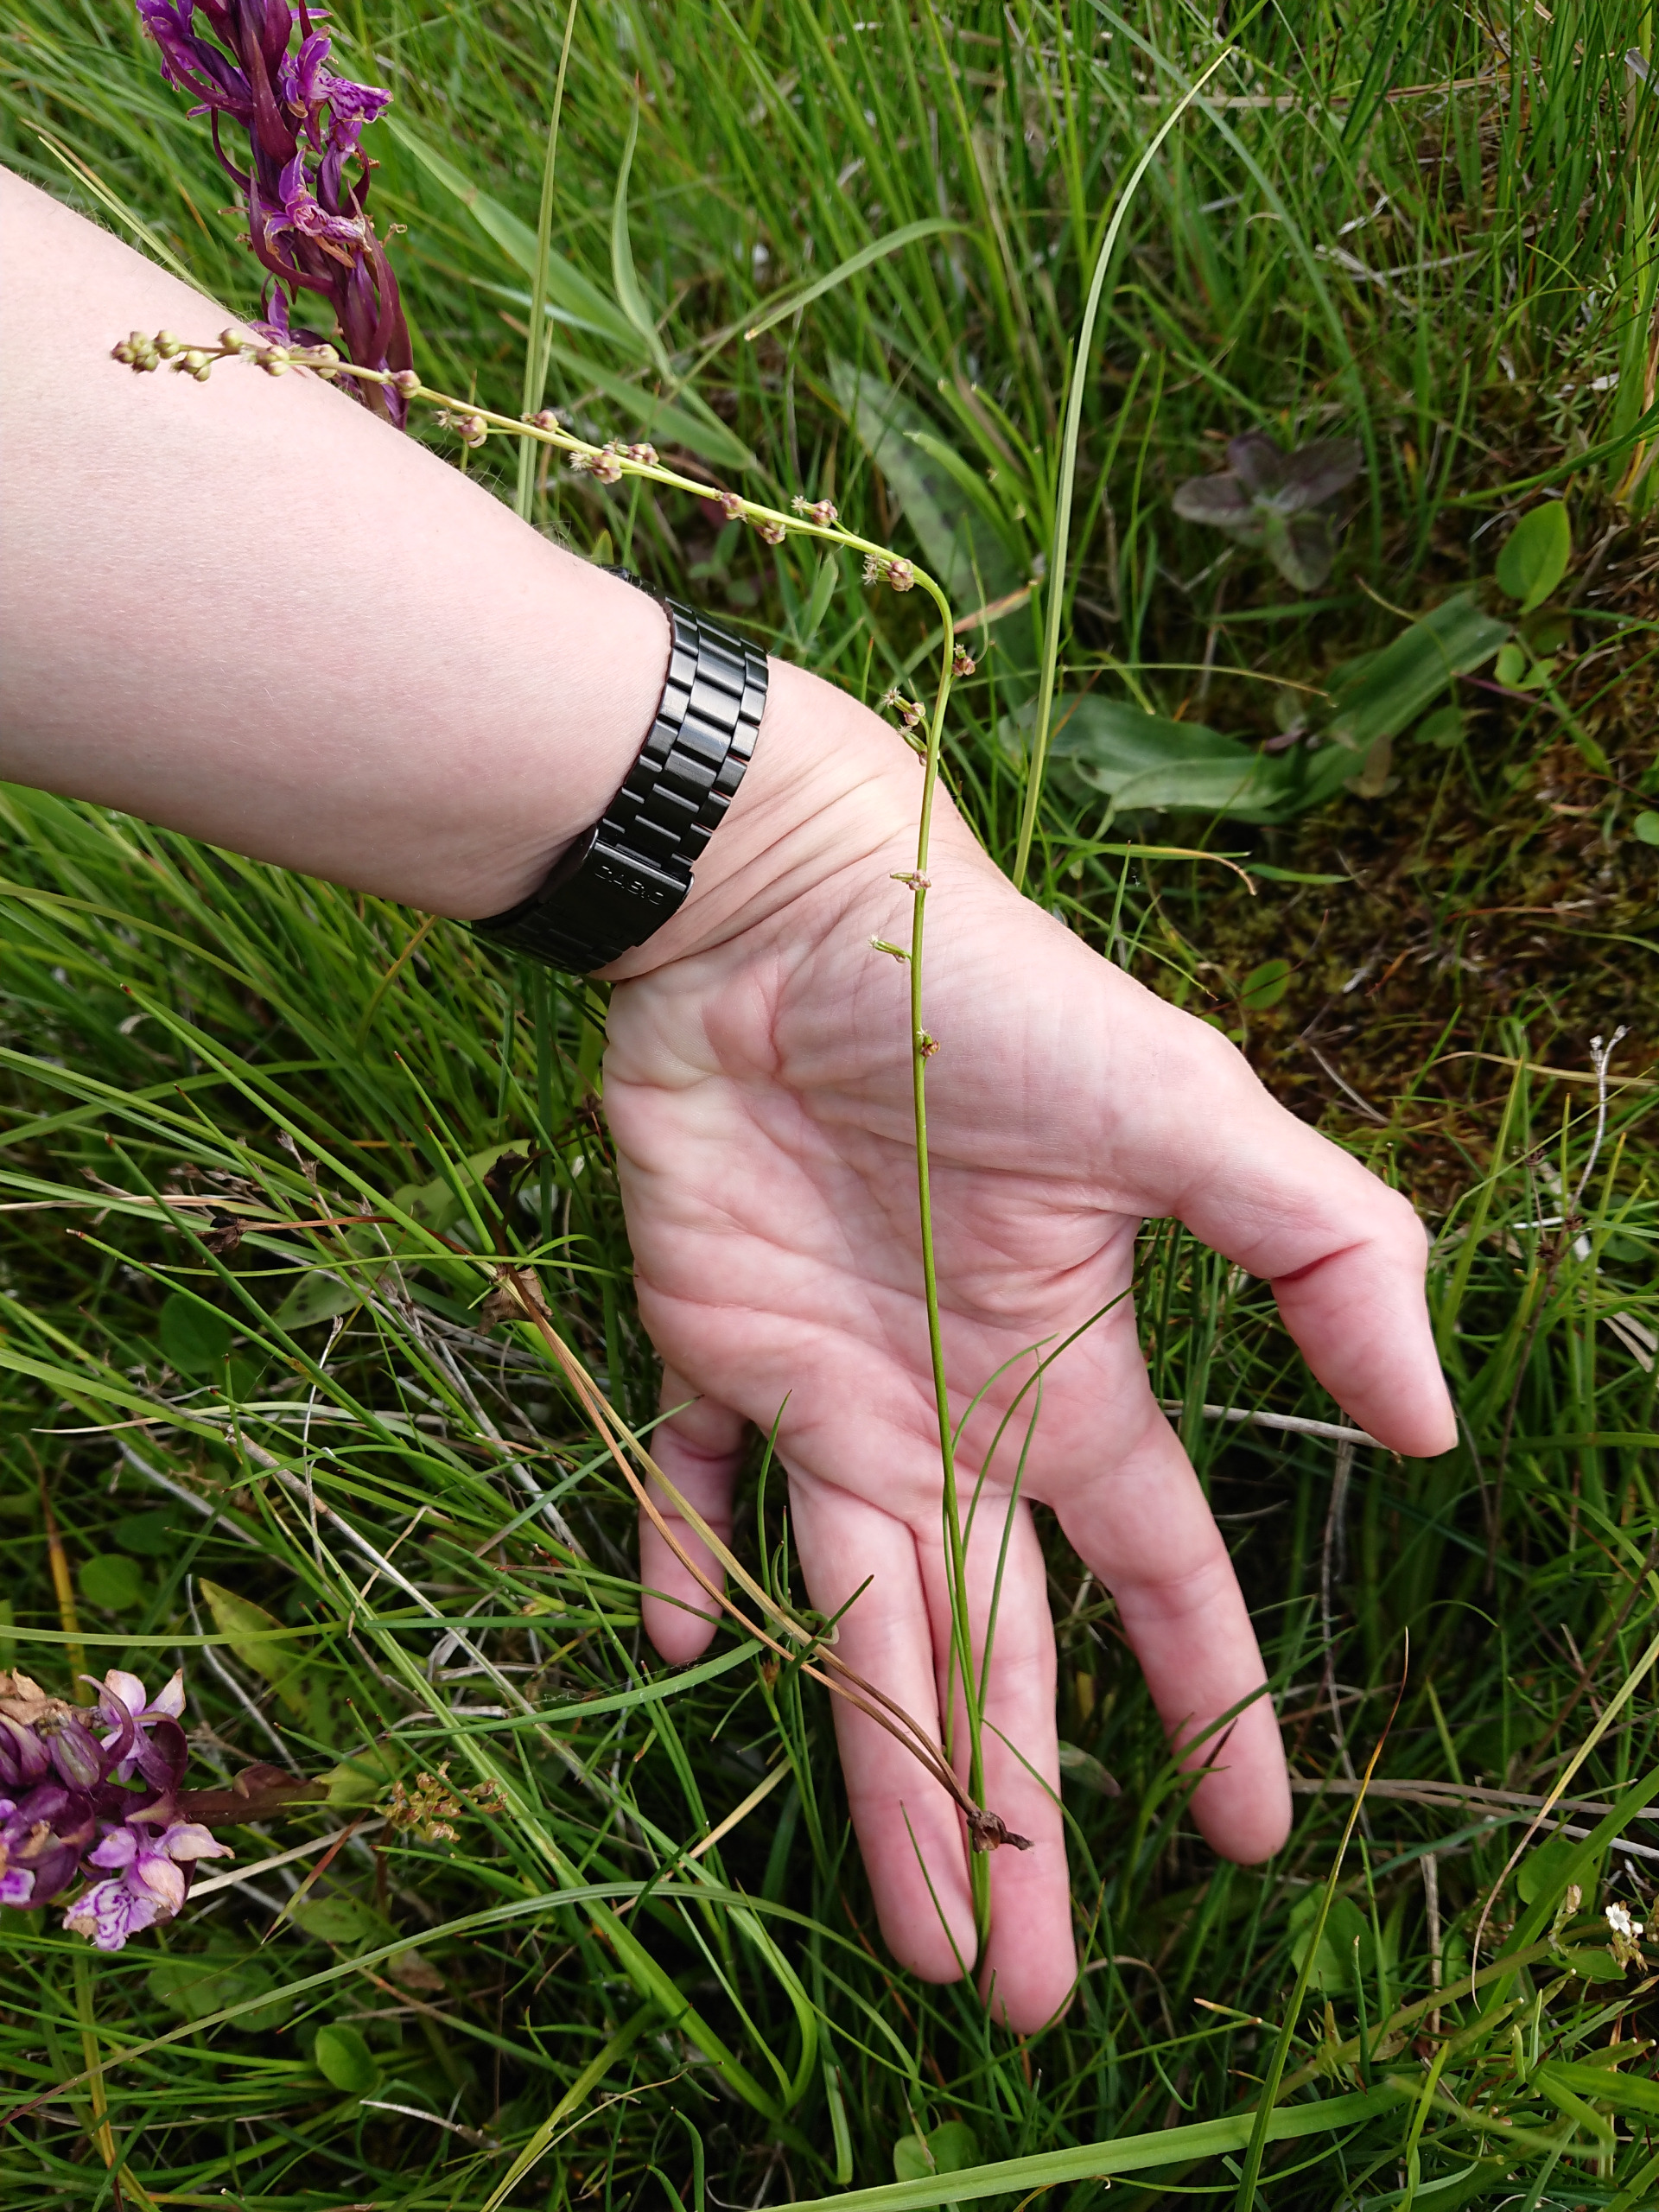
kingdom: Plantae
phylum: Tracheophyta
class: Liliopsida
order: Alismatales
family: Juncaginaceae
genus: Triglochin
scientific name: Triglochin palustris
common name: Kær-trehage
